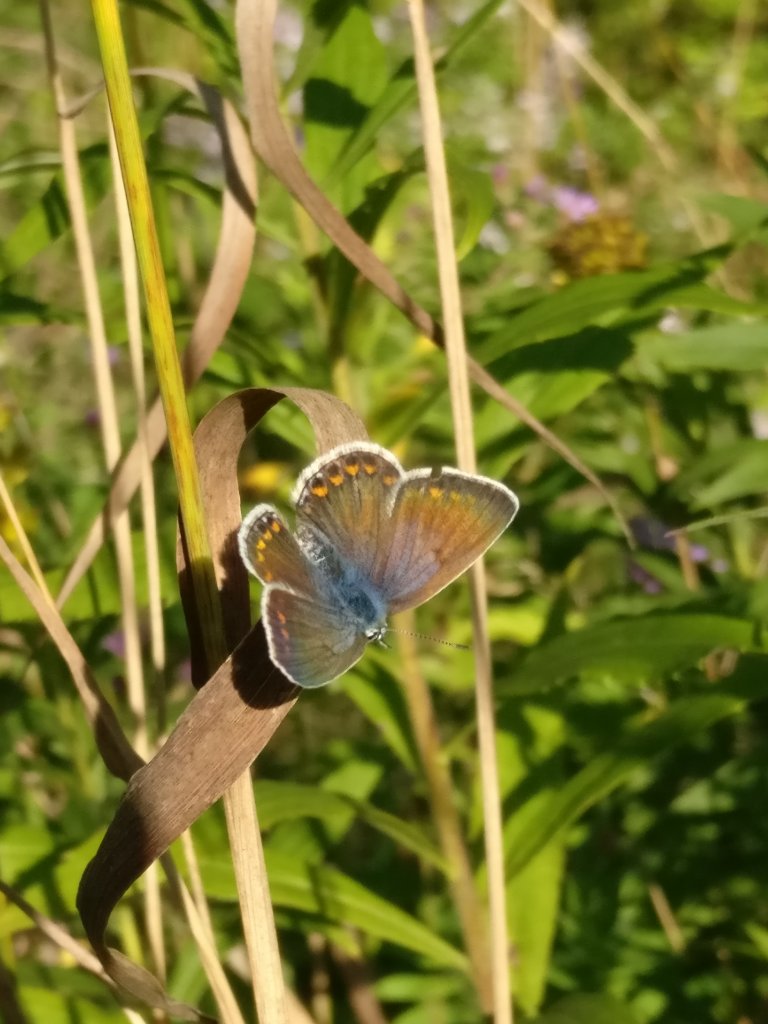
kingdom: Animalia
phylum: Arthropoda
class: Insecta
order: Lepidoptera
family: Lycaenidae
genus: Polyommatus
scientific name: Polyommatus icarus
